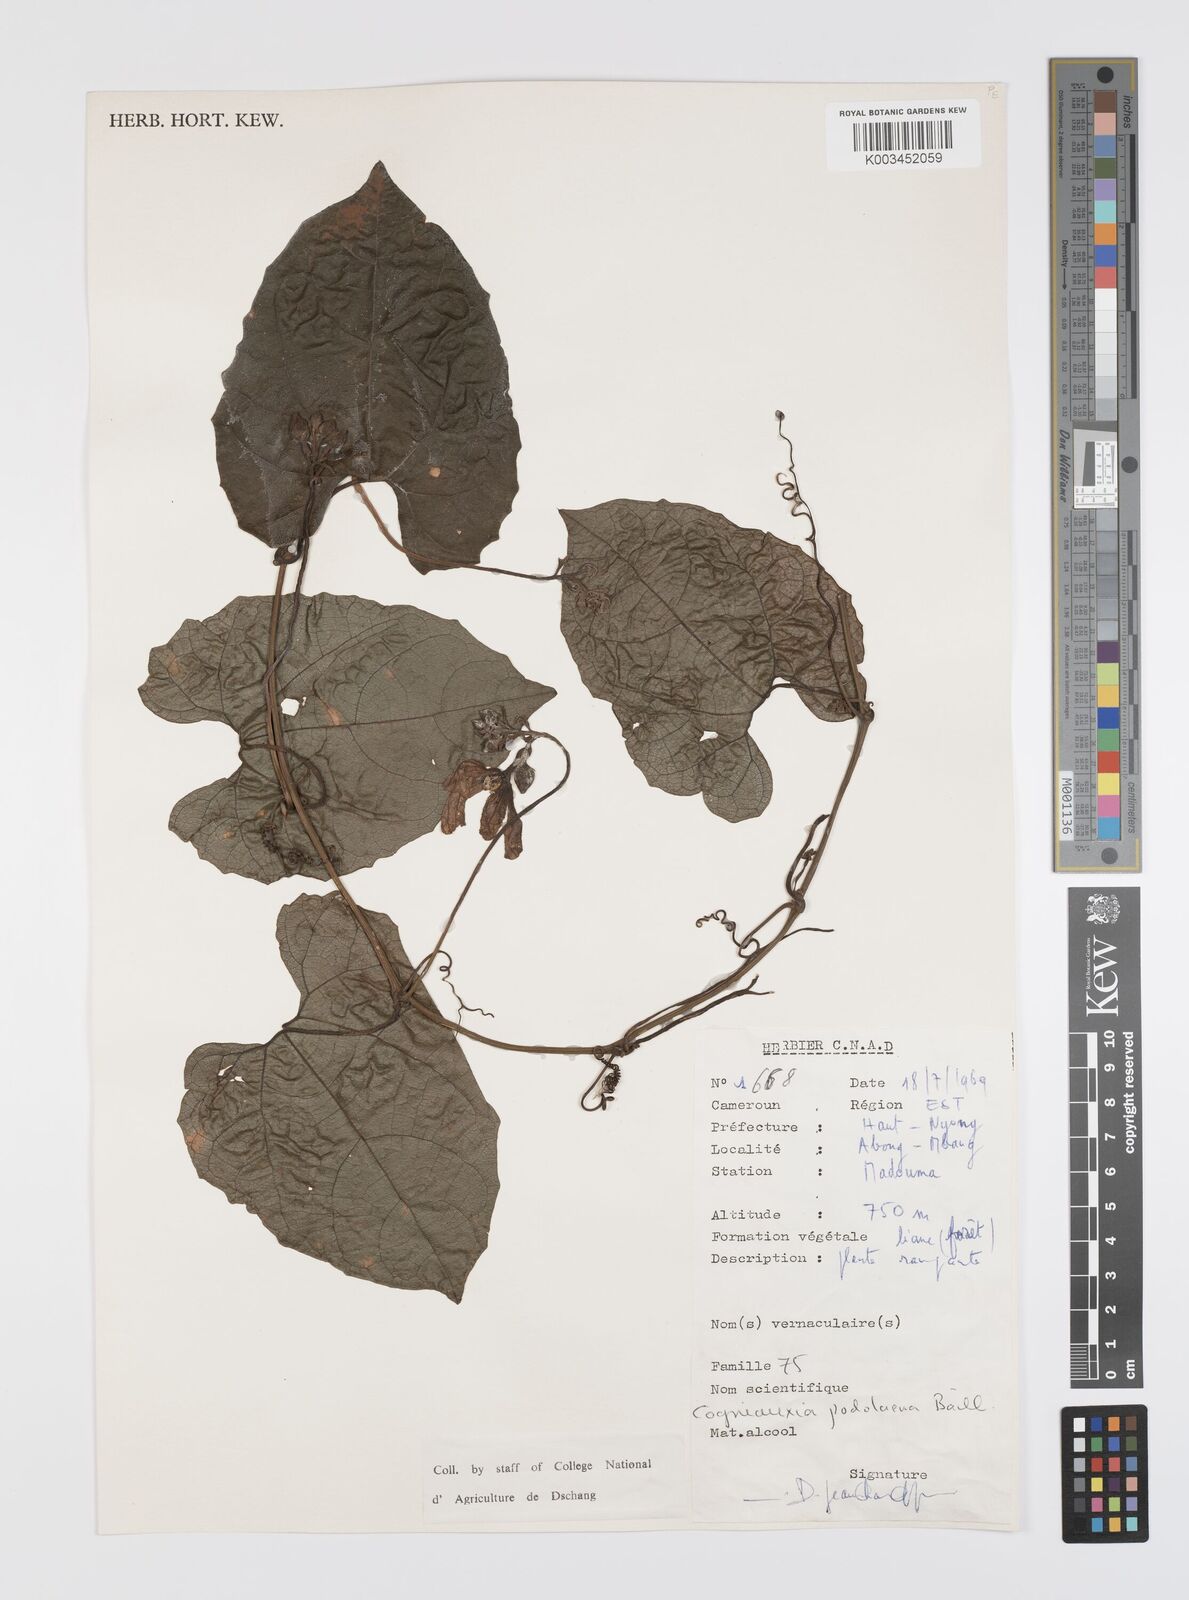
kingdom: Plantae
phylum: Tracheophyta
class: Magnoliopsida
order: Cucurbitales
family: Cucurbitaceae
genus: Cogniauxia
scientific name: Cogniauxia podolaena
